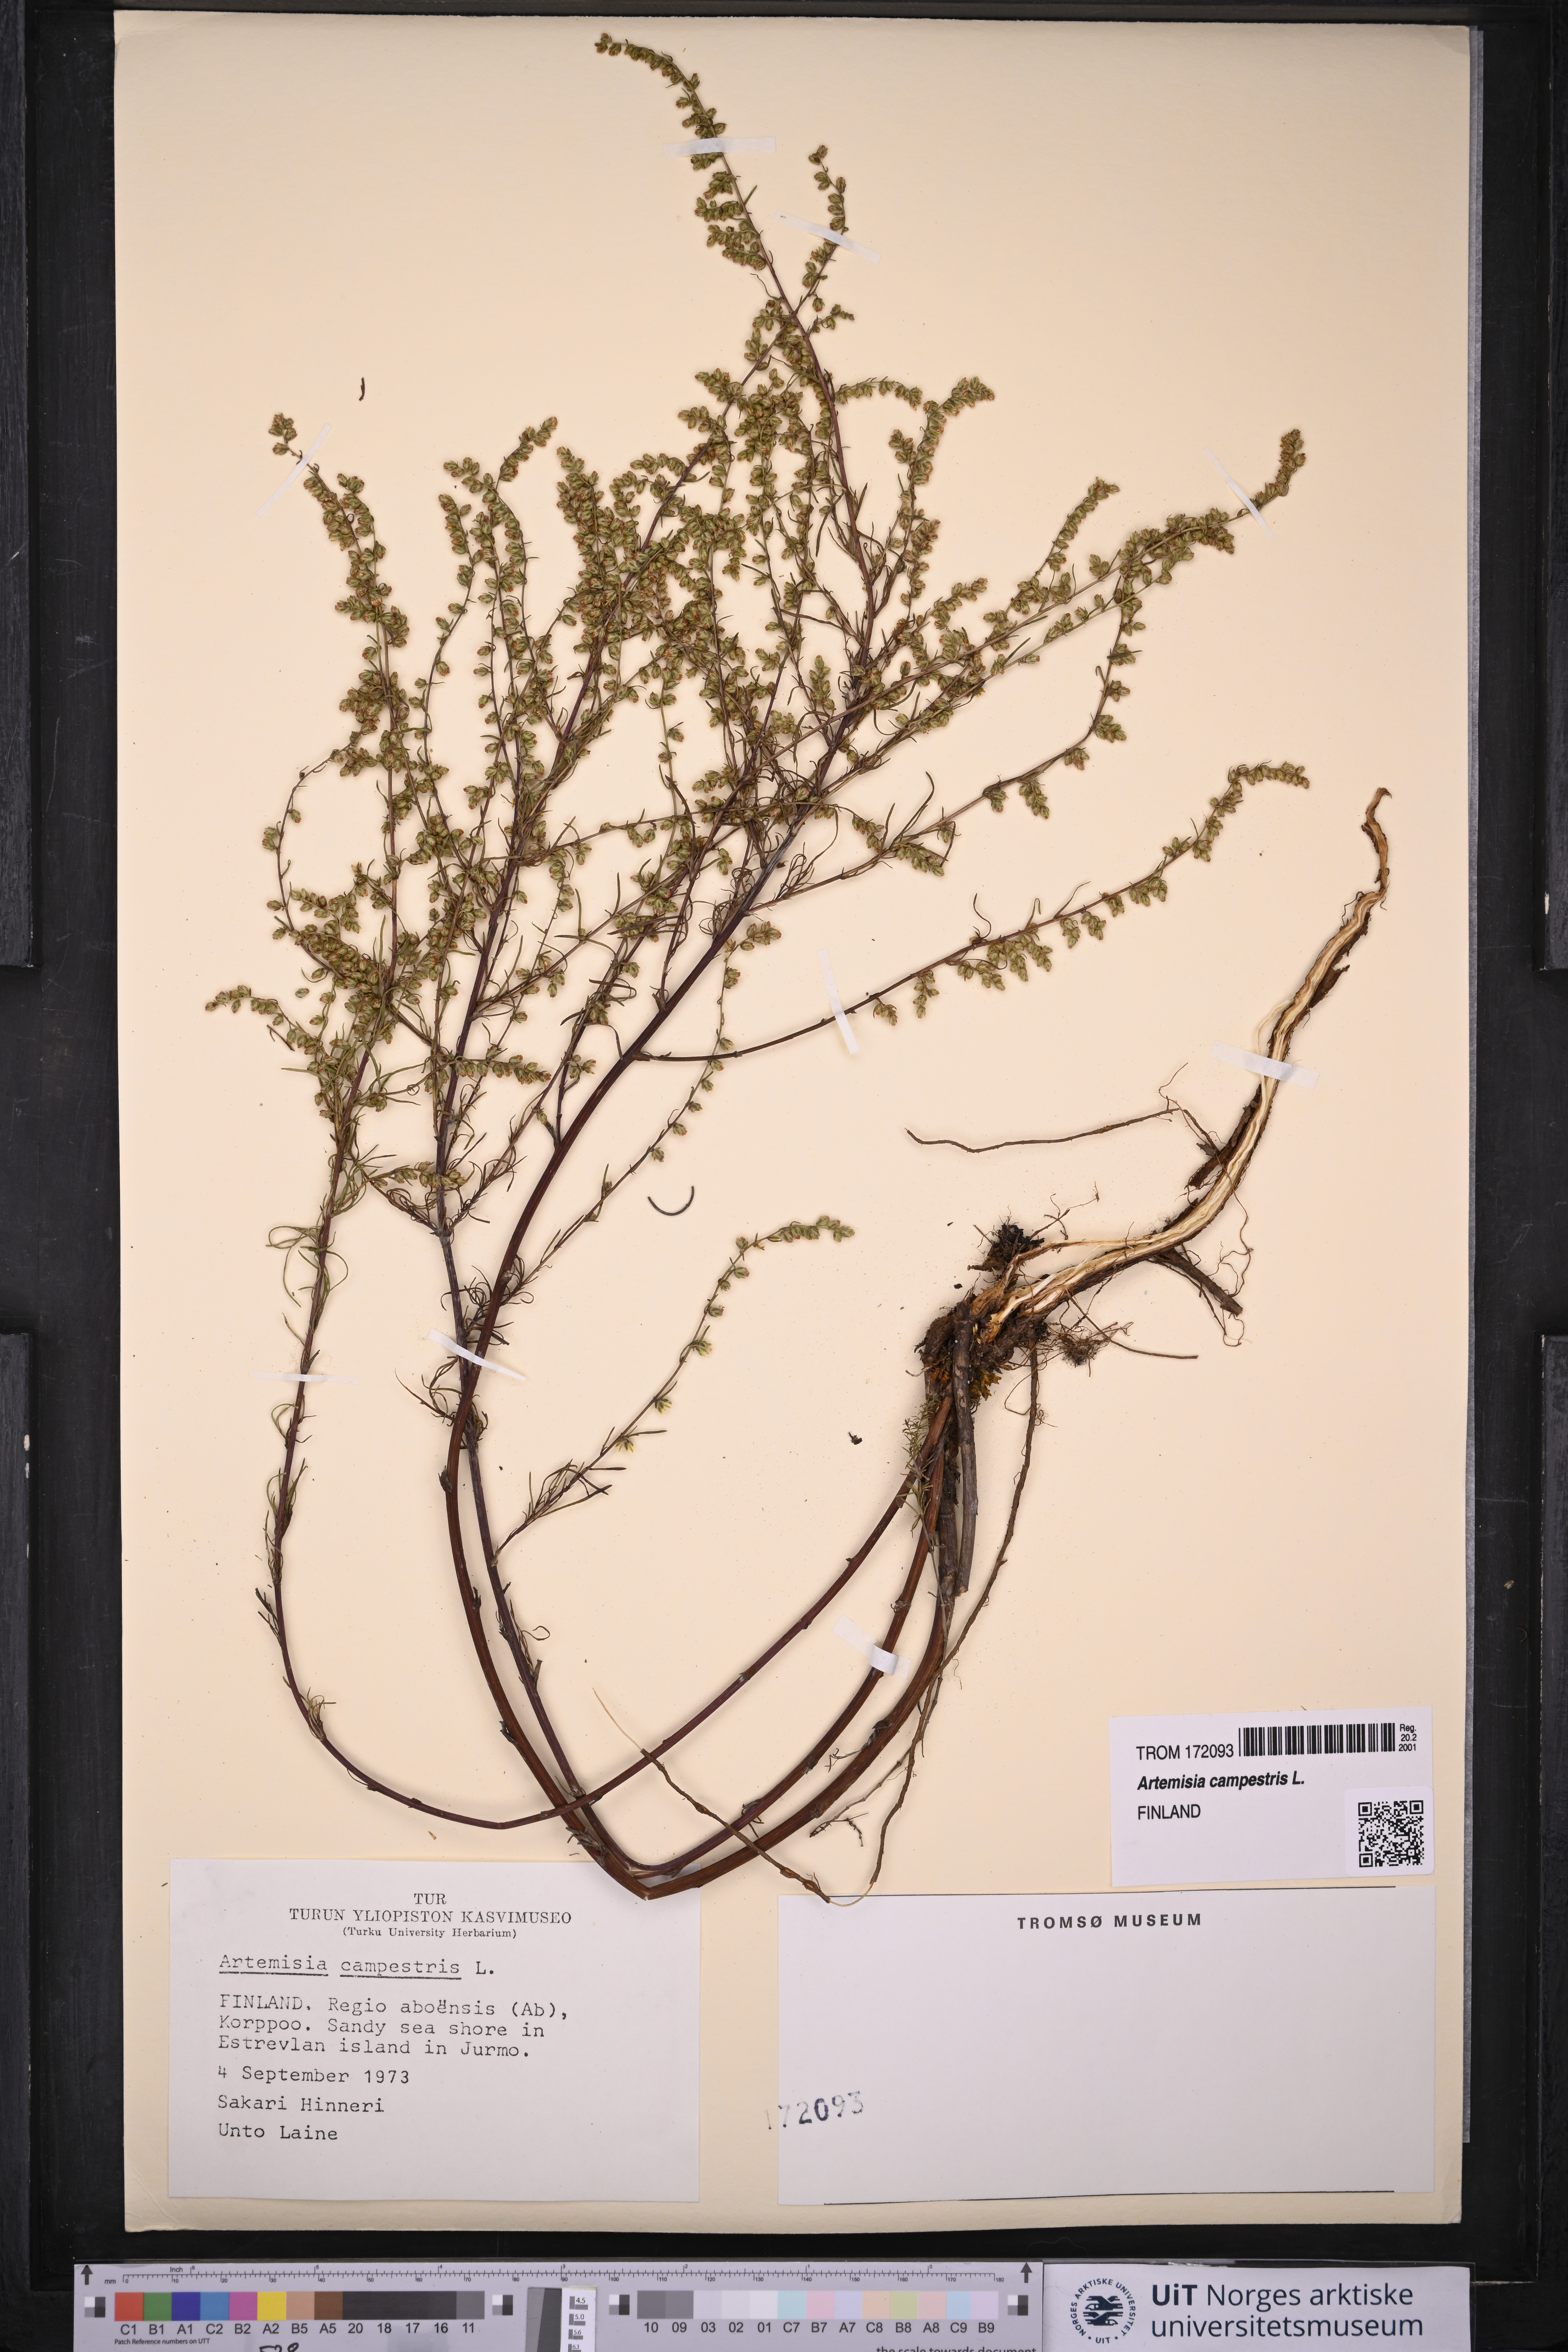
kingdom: Plantae
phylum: Tracheophyta
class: Magnoliopsida
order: Asterales
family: Asteraceae
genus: Artemisia
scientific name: Artemisia campestris
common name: Field wormwood
